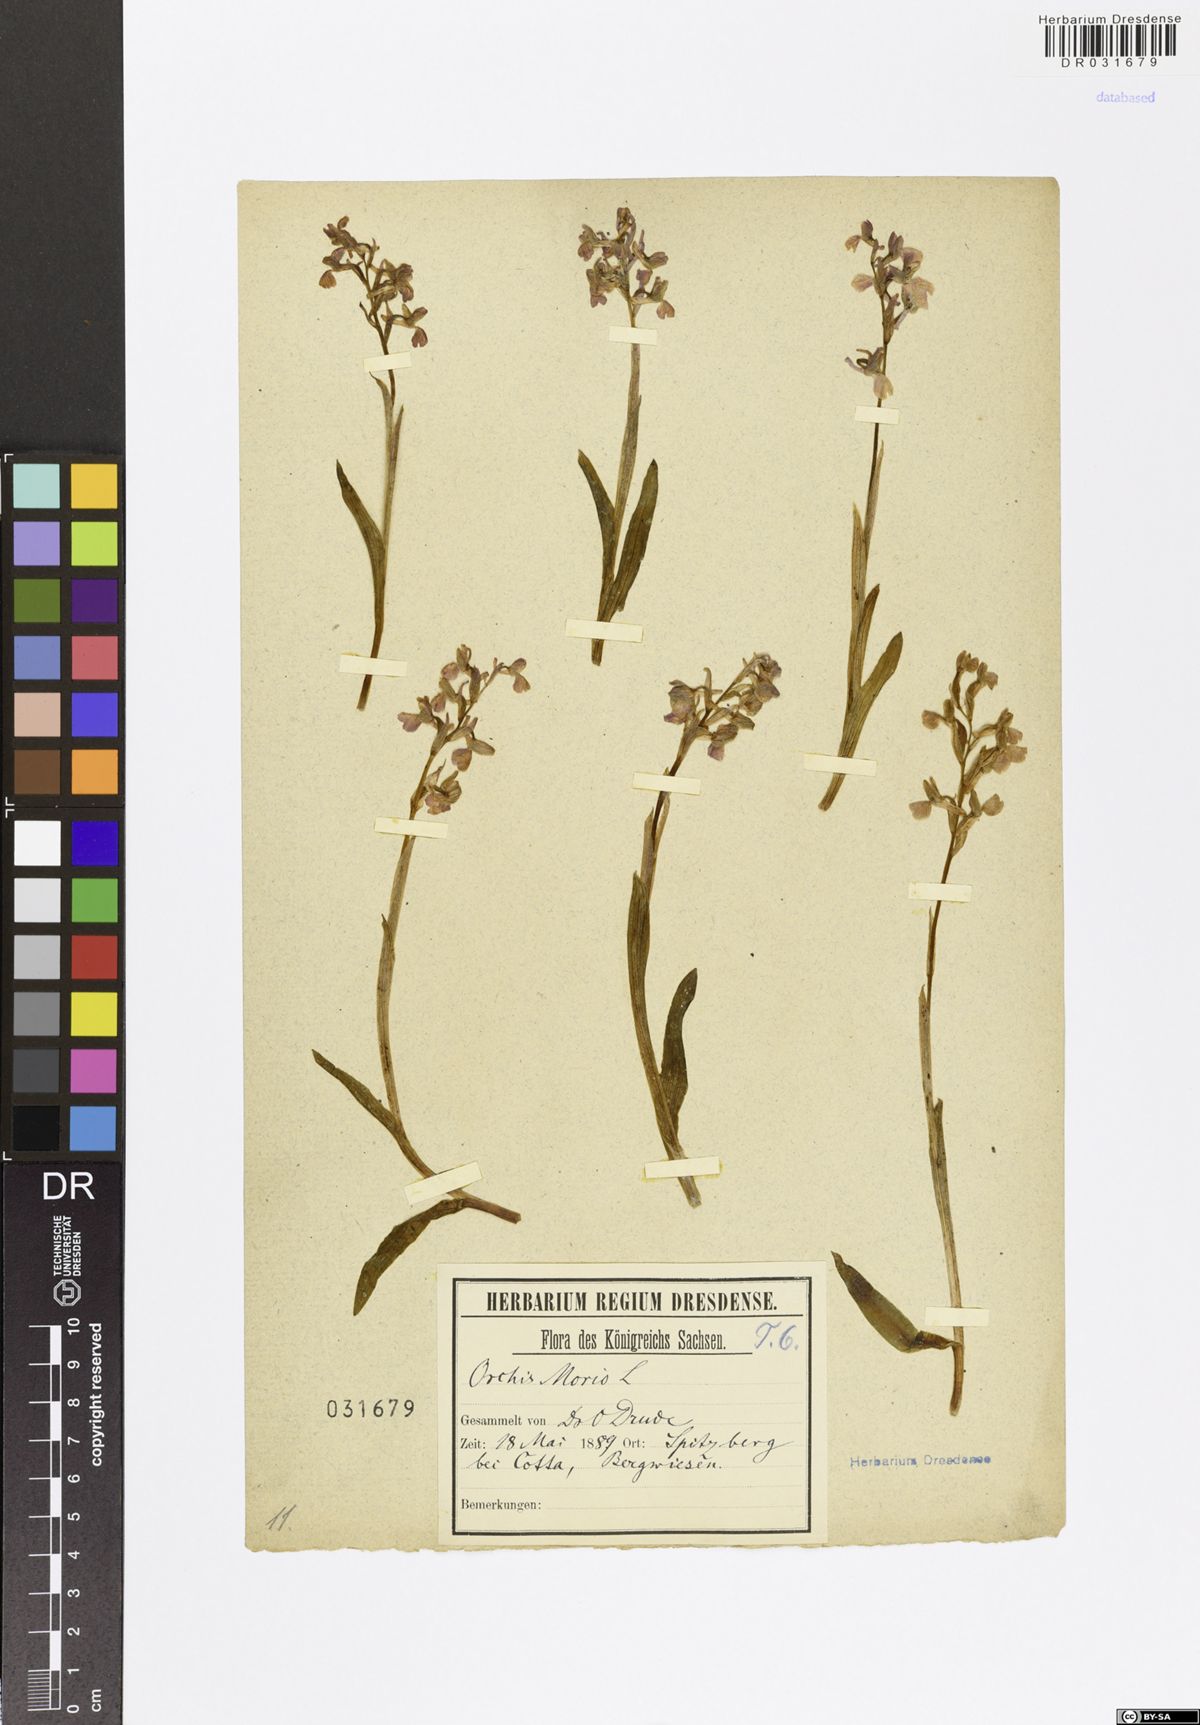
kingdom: Plantae
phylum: Tracheophyta
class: Liliopsida
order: Asparagales
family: Orchidaceae
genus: Anacamptis
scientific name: Anacamptis morio
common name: Green-winged orchid
